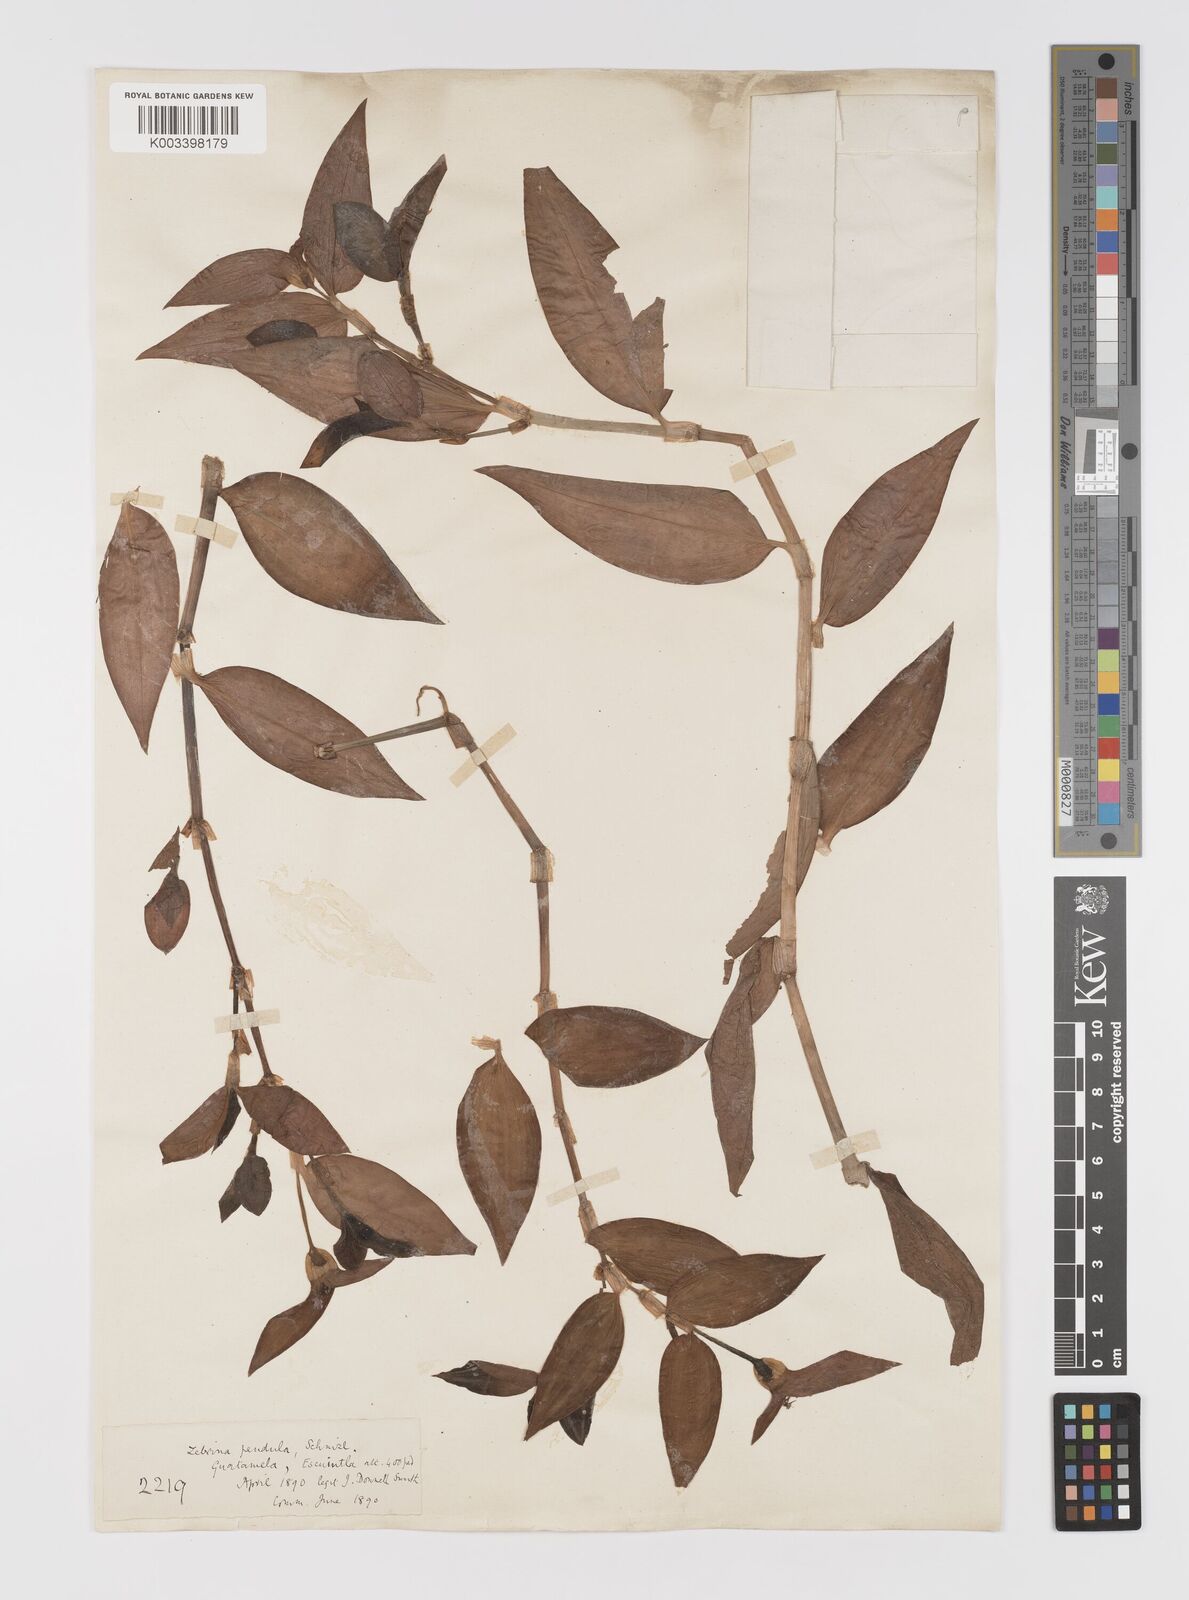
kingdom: Plantae
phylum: Tracheophyta
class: Liliopsida
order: Commelinales
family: Commelinaceae
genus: Tradescantia
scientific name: Tradescantia zebrina
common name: Inchplant
